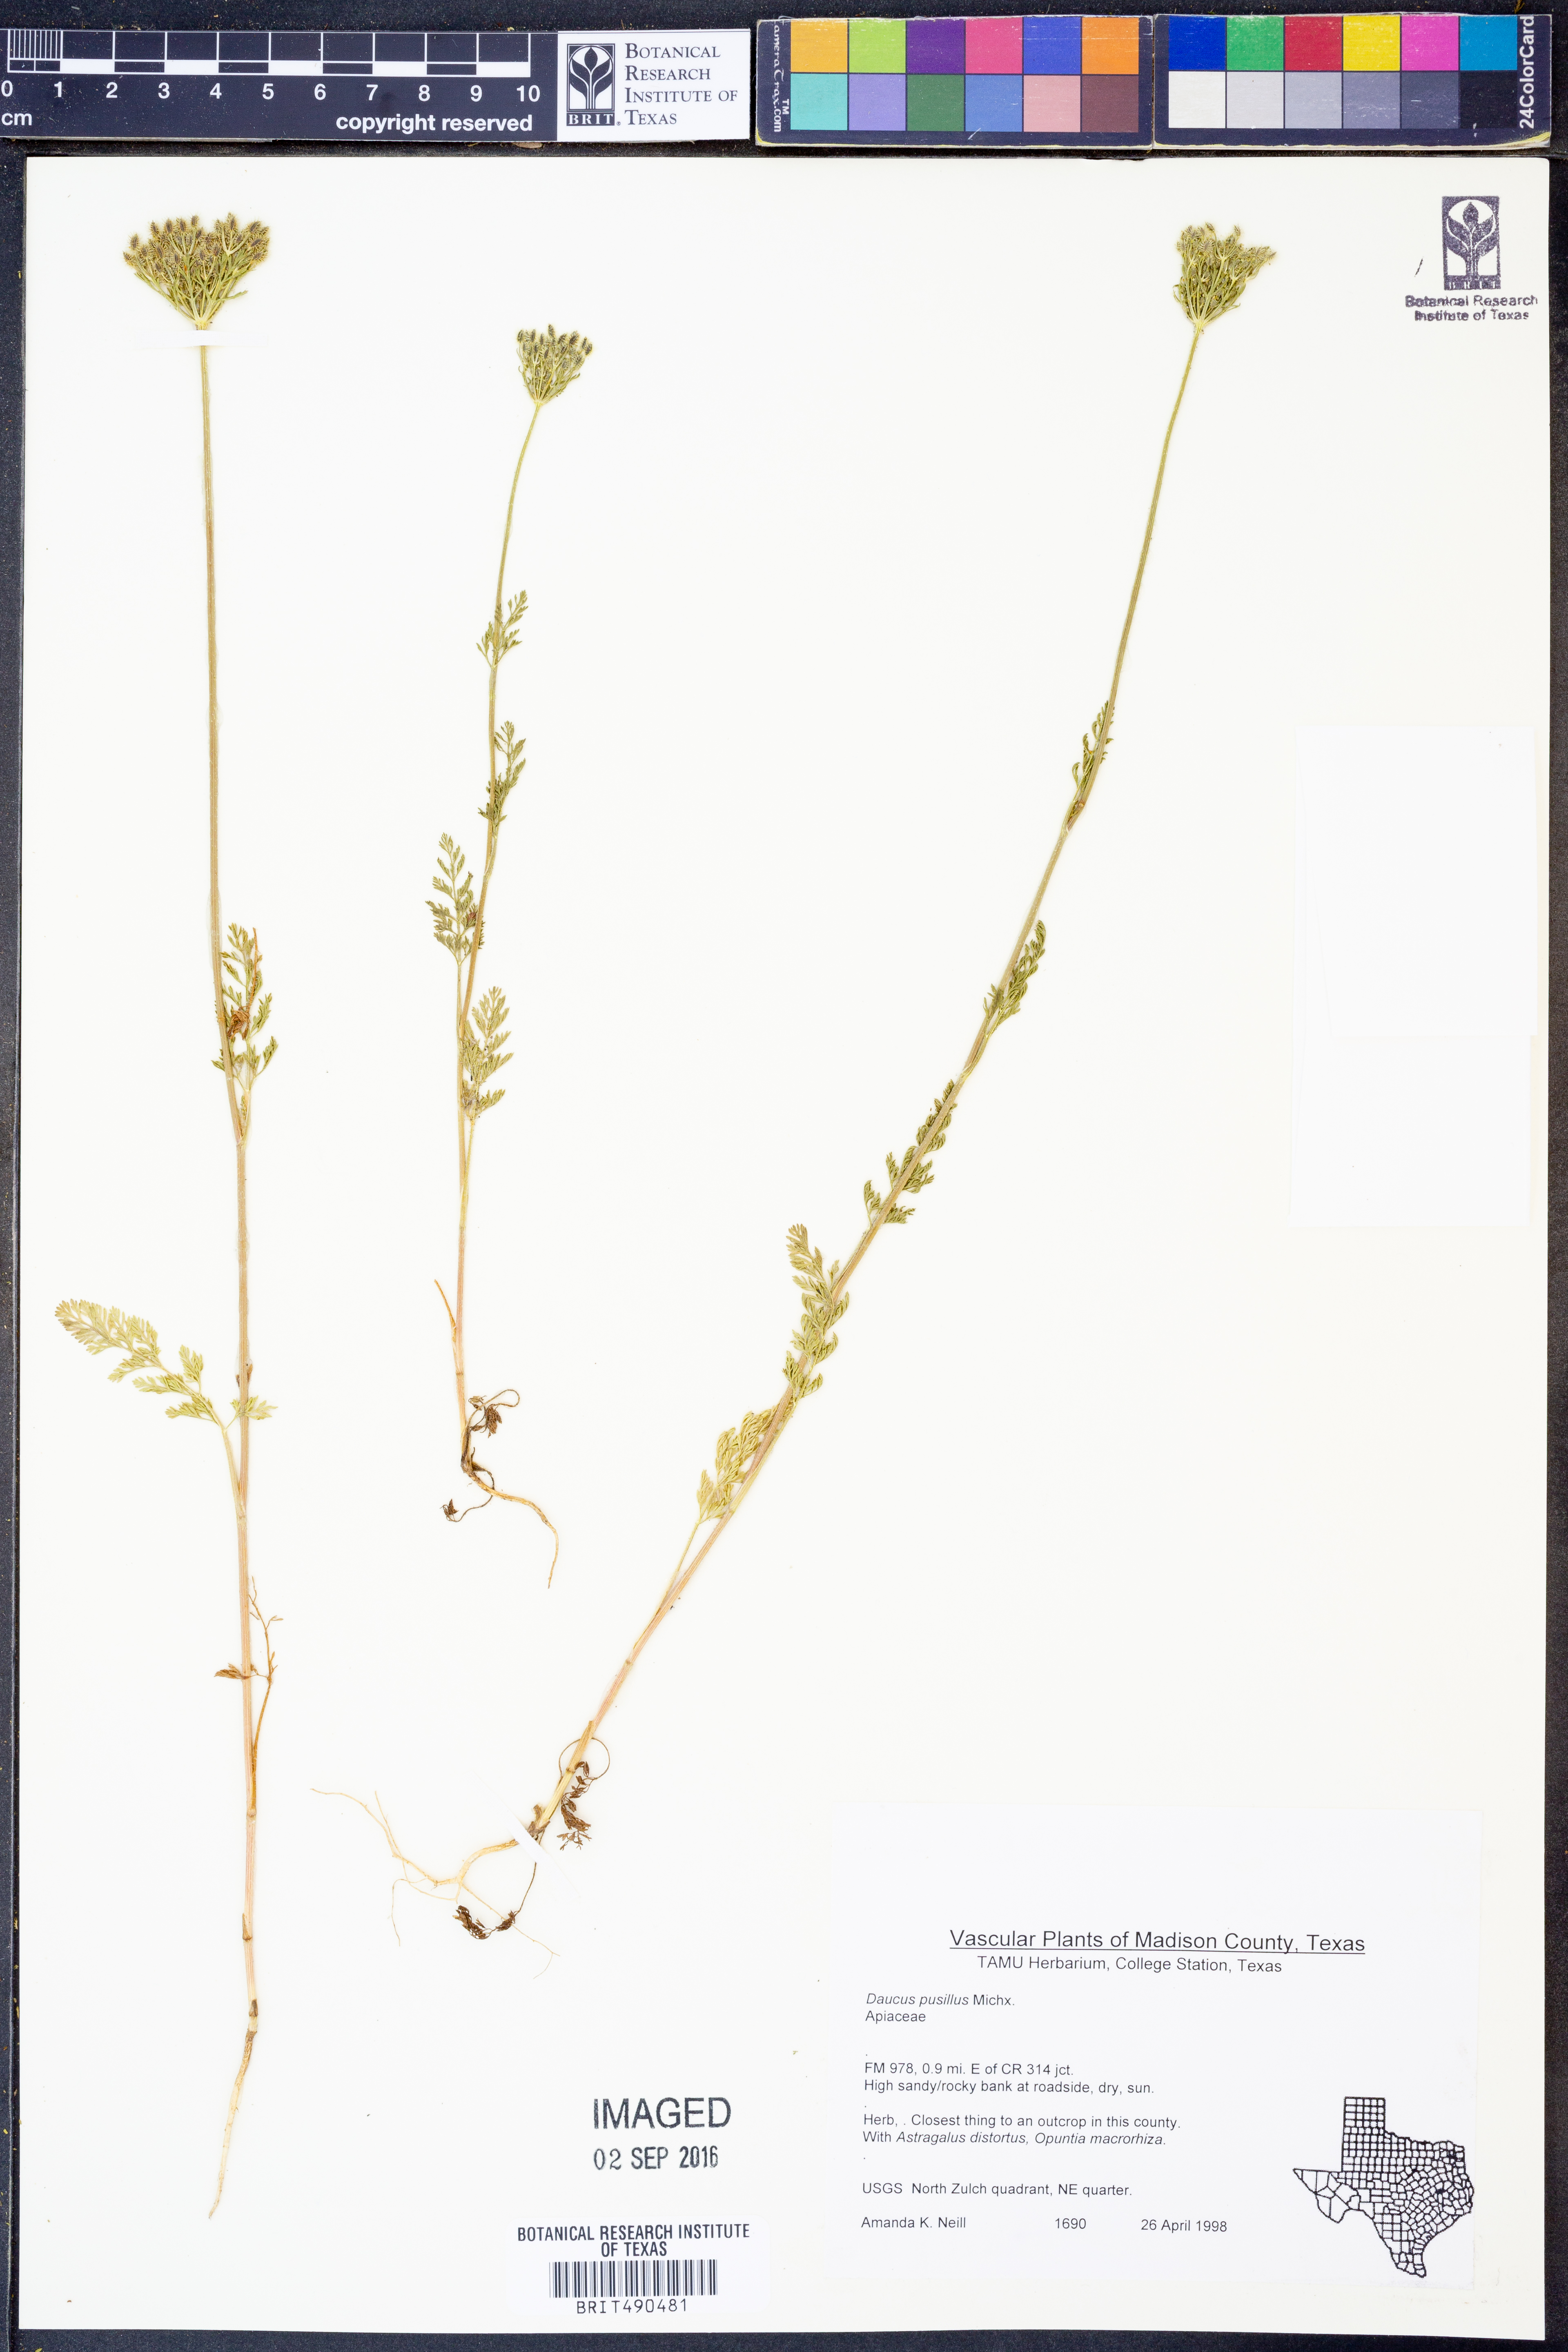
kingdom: Plantae
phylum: Tracheophyta
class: Magnoliopsida
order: Apiales
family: Apiaceae
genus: Daucus
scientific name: Daucus pusillus
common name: Southwest wild carrot
